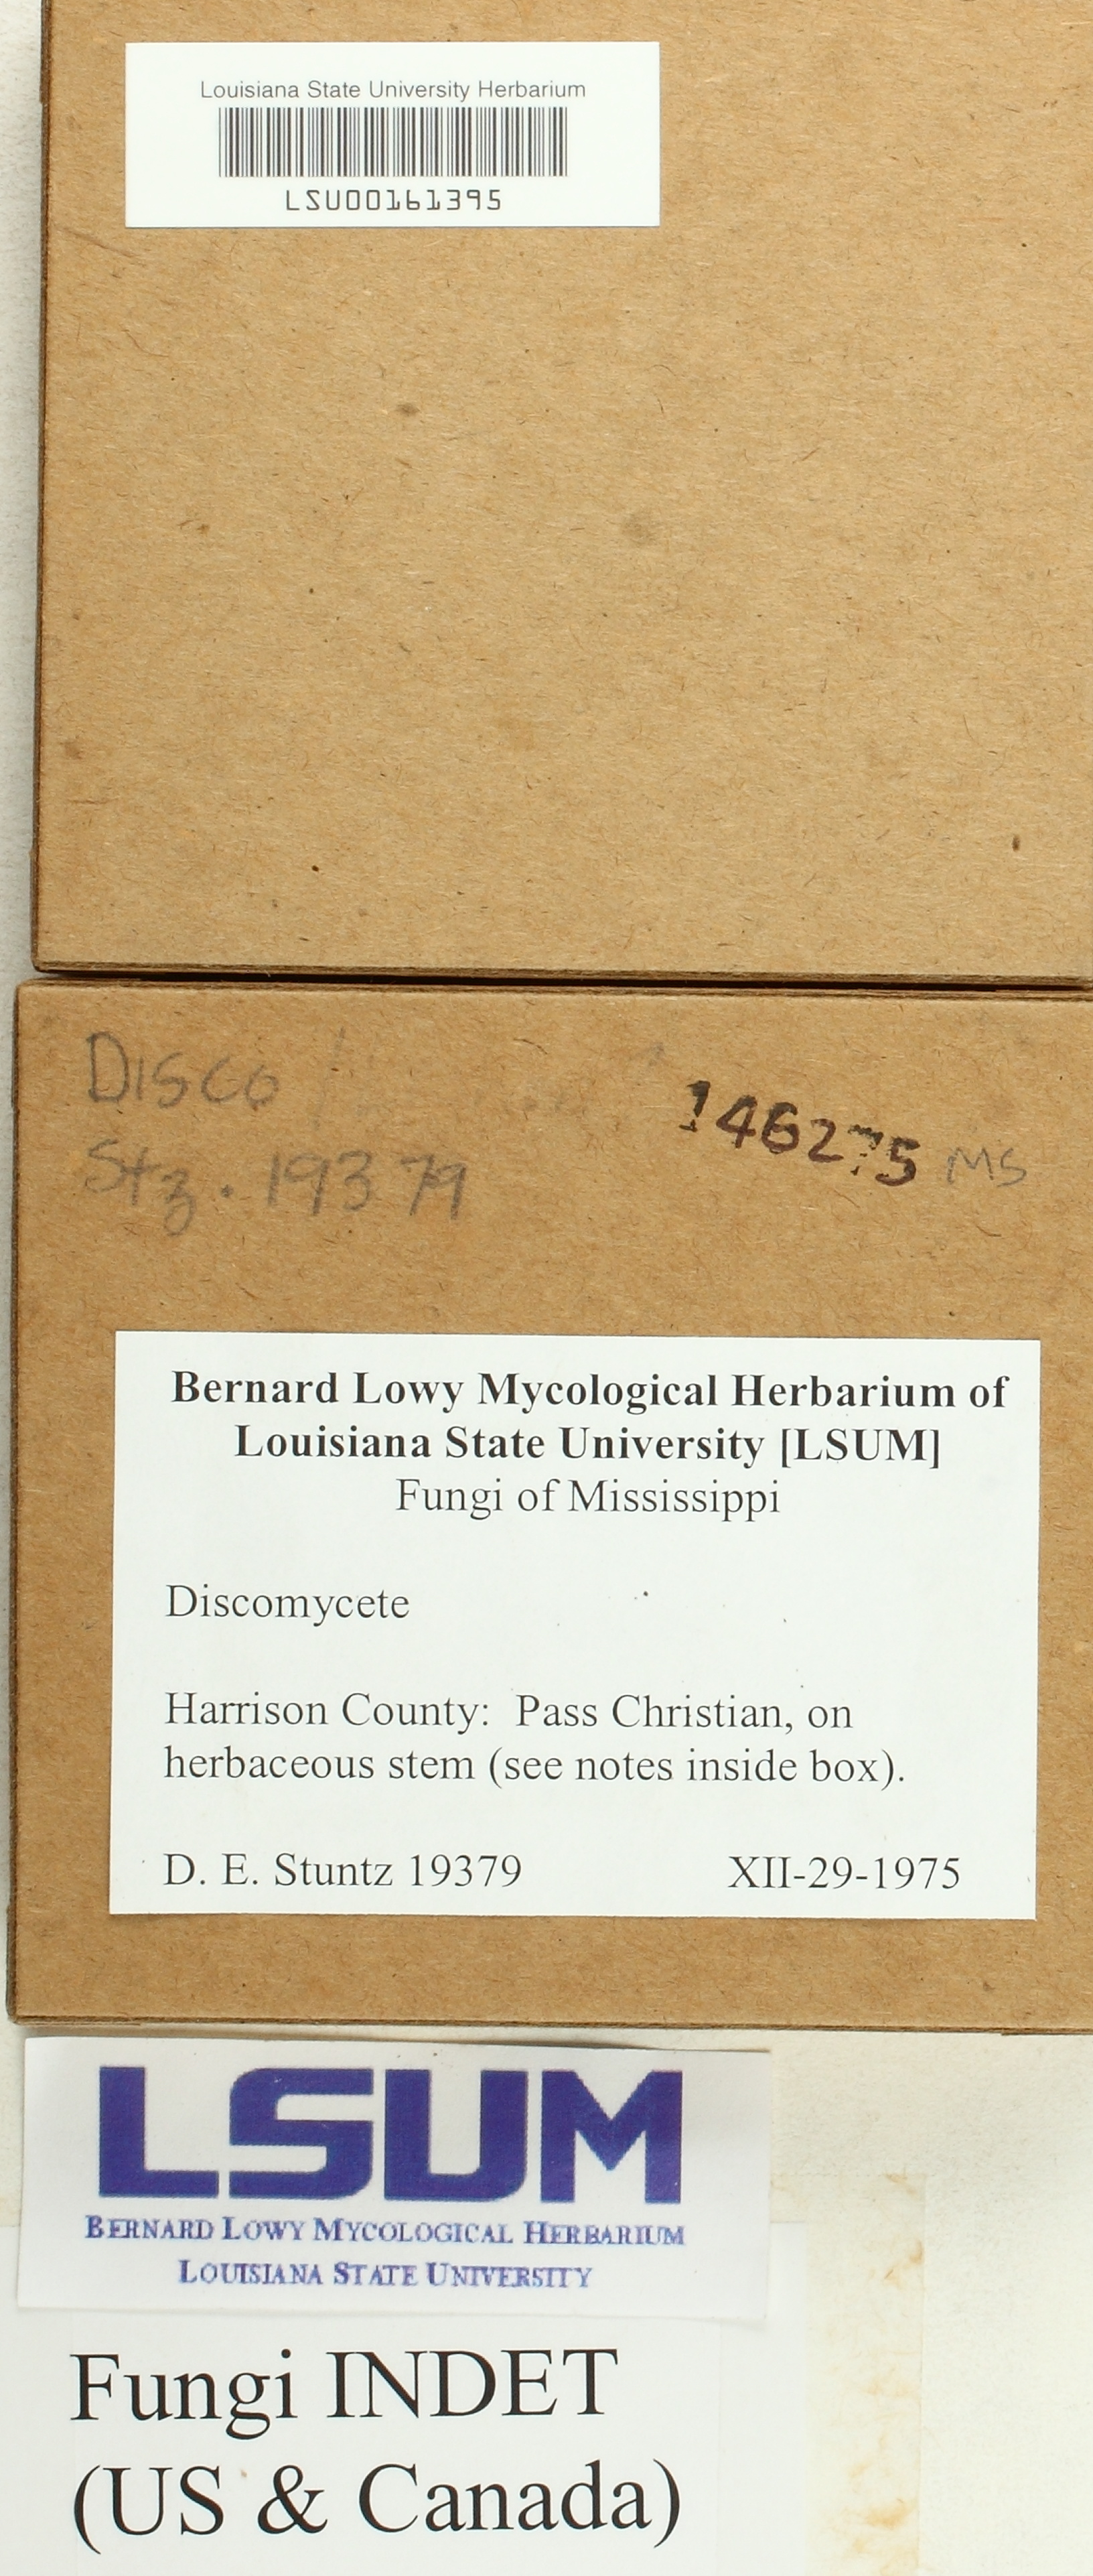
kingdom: Fungi
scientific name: Fungi
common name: Fungi
